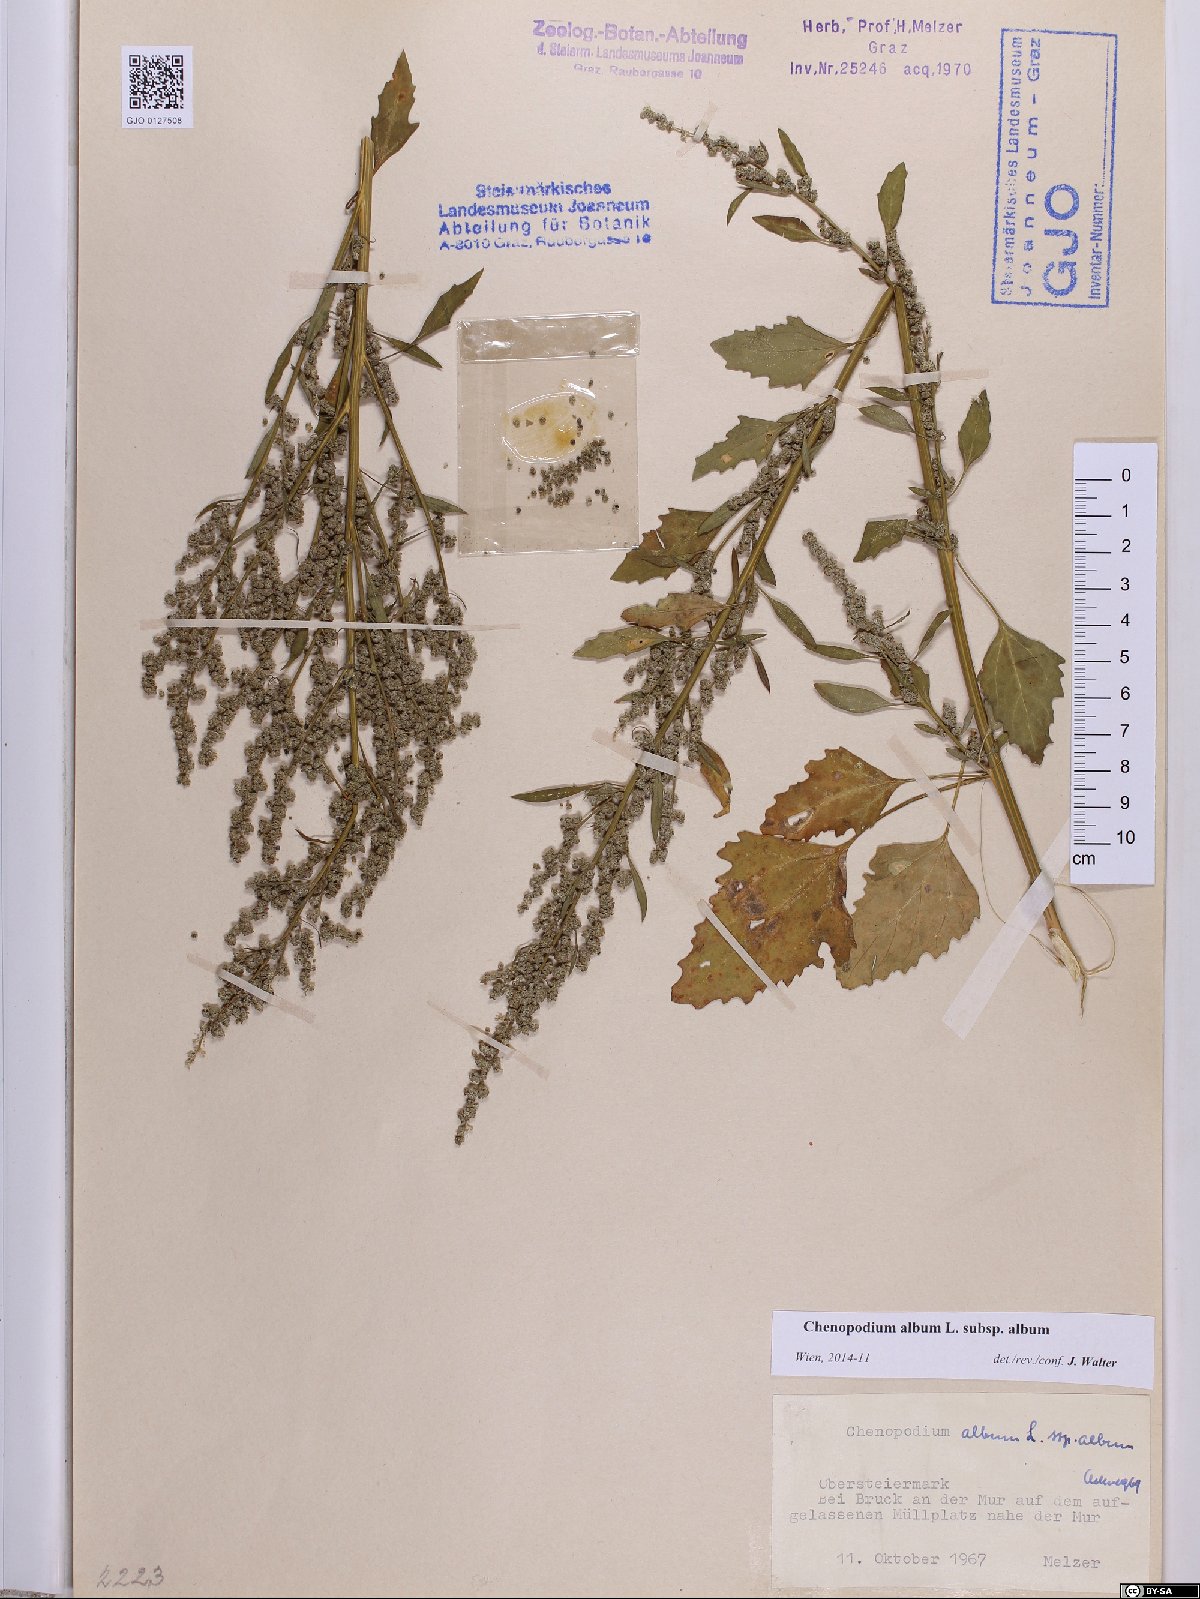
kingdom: Plantae
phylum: Tracheophyta
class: Magnoliopsida
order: Caryophyllales
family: Amaranthaceae
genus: Chenopodium
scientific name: Chenopodium album
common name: Fat-hen
